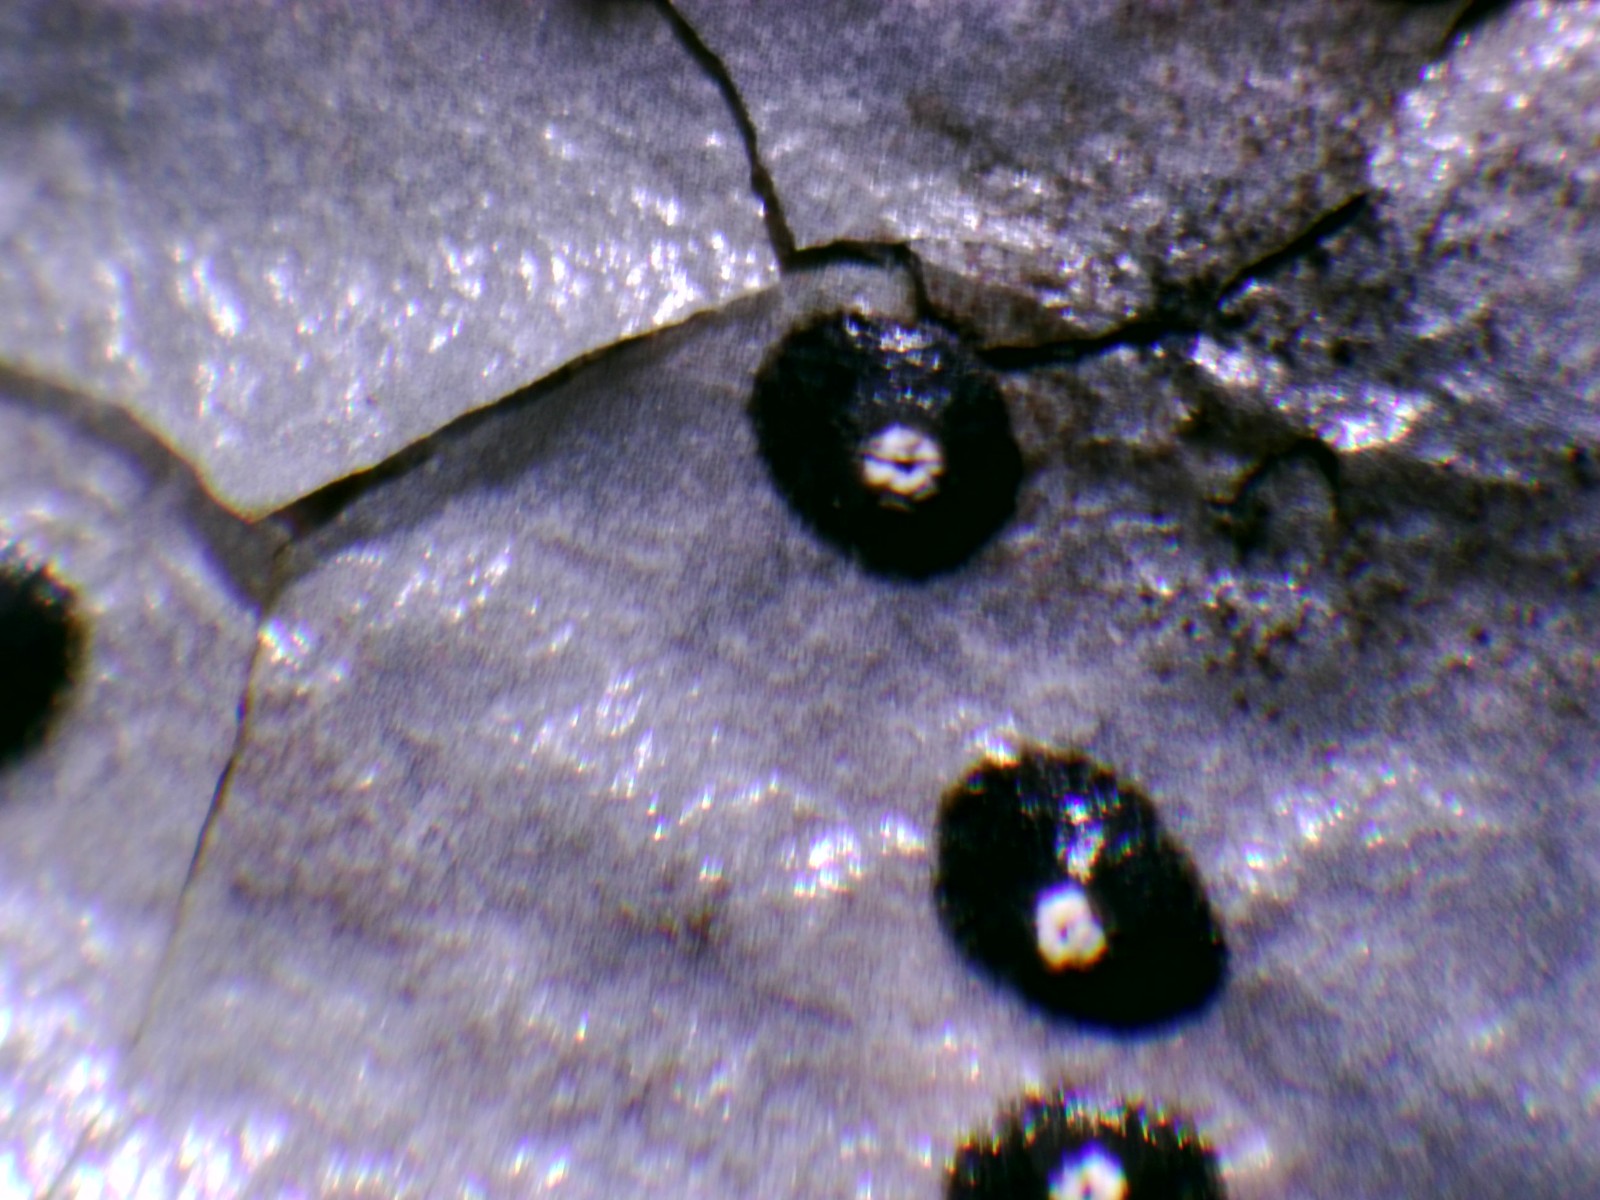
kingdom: Fungi
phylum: Ascomycota
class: Leotiomycetes
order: Phacidiales
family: Phacidiaceae
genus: Phacidium
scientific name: Phacidium lauri
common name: kristtorn-tandskive
